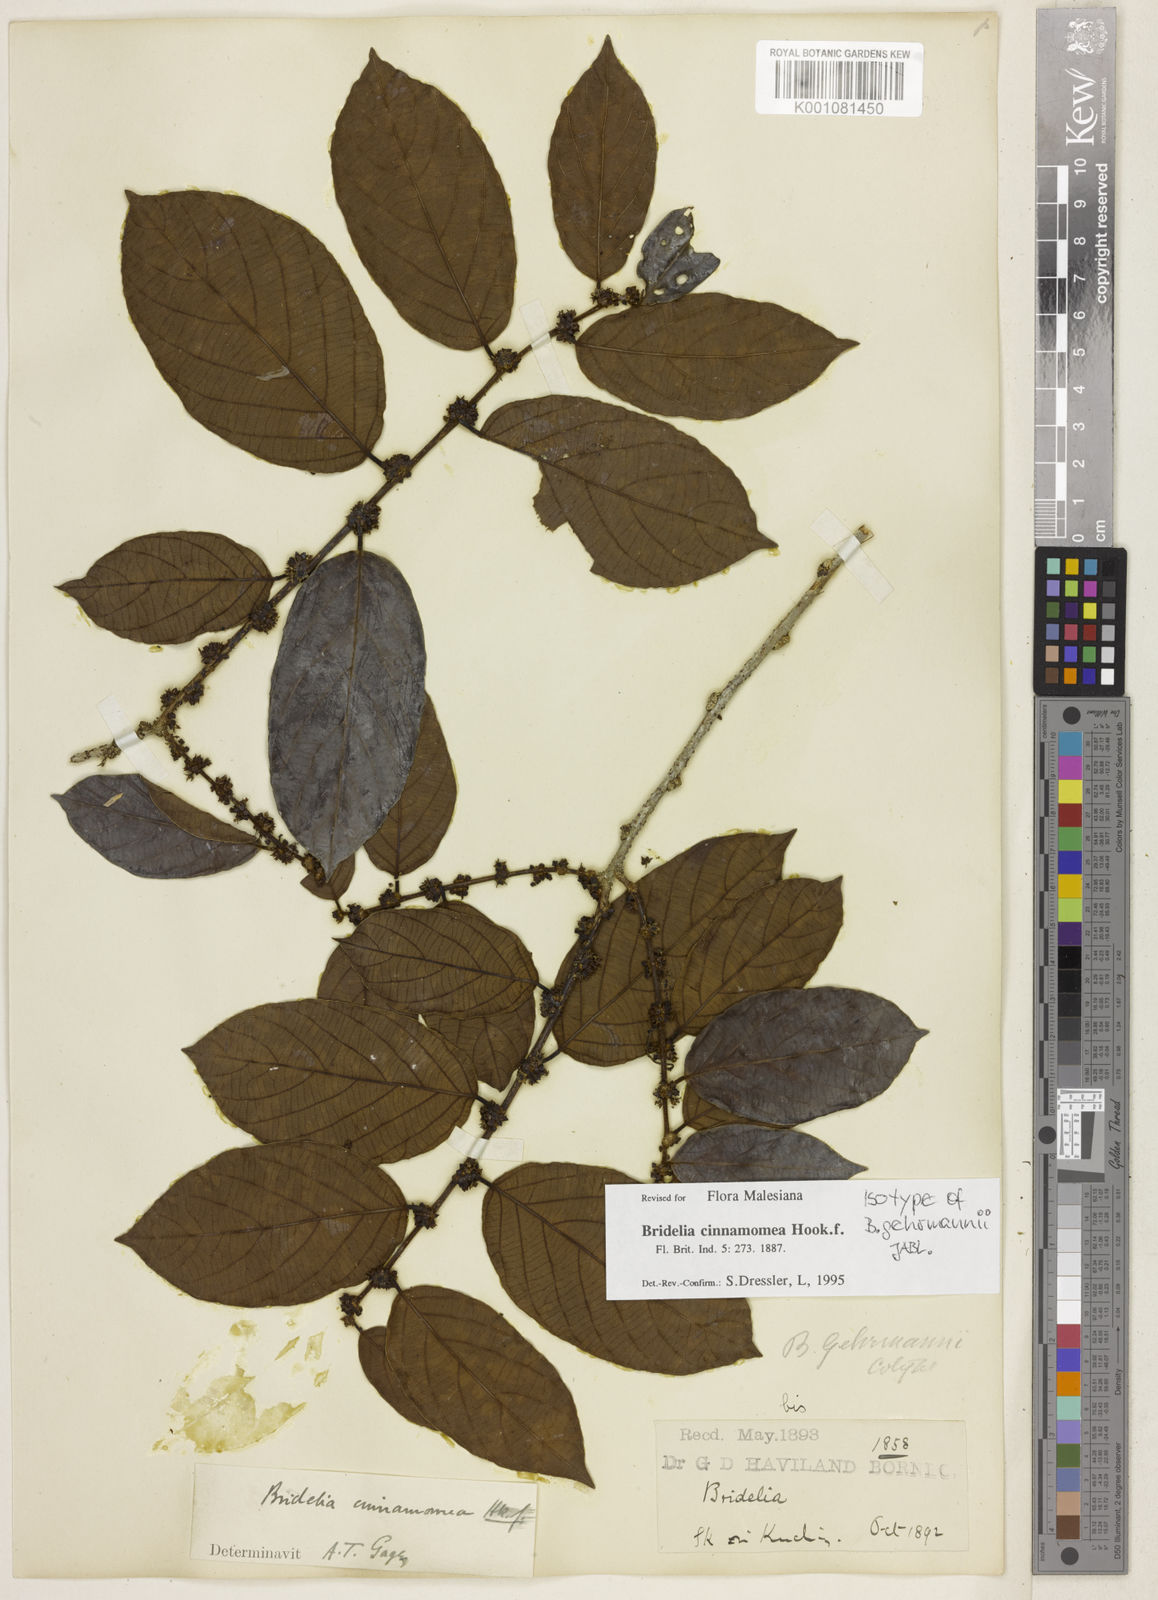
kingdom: Plantae
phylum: Tracheophyta
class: Magnoliopsida
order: Malpighiales
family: Phyllanthaceae
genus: Bridelia
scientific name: Bridelia cinnamomea
